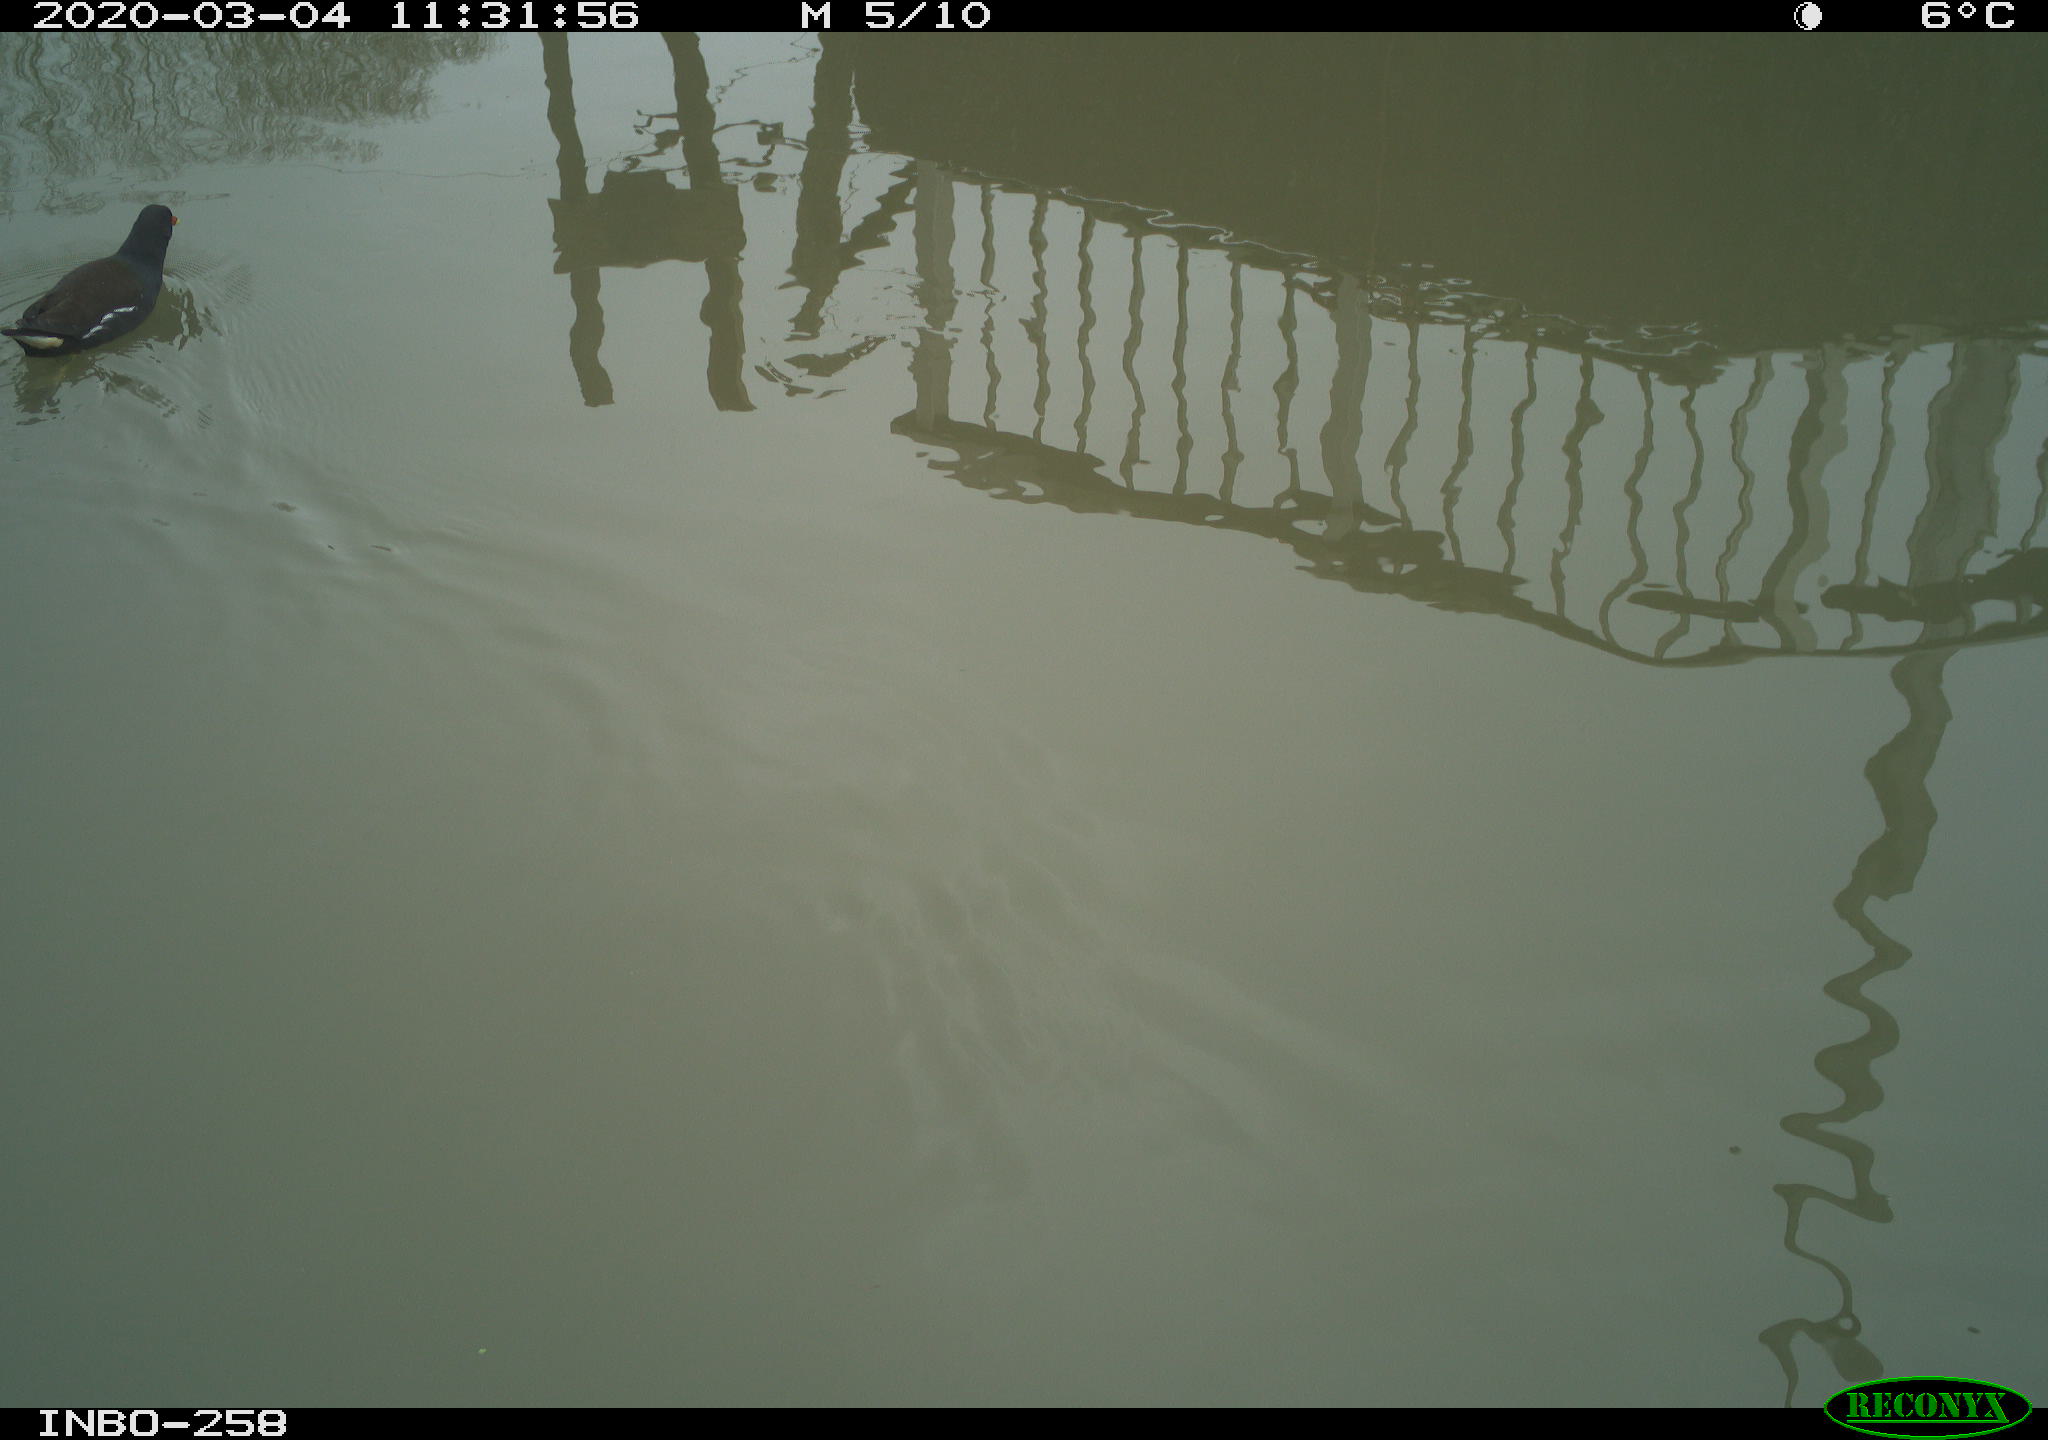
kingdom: Animalia
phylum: Chordata
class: Aves
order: Gruiformes
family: Rallidae
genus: Gallinula
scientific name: Gallinula chloropus
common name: Common moorhen
